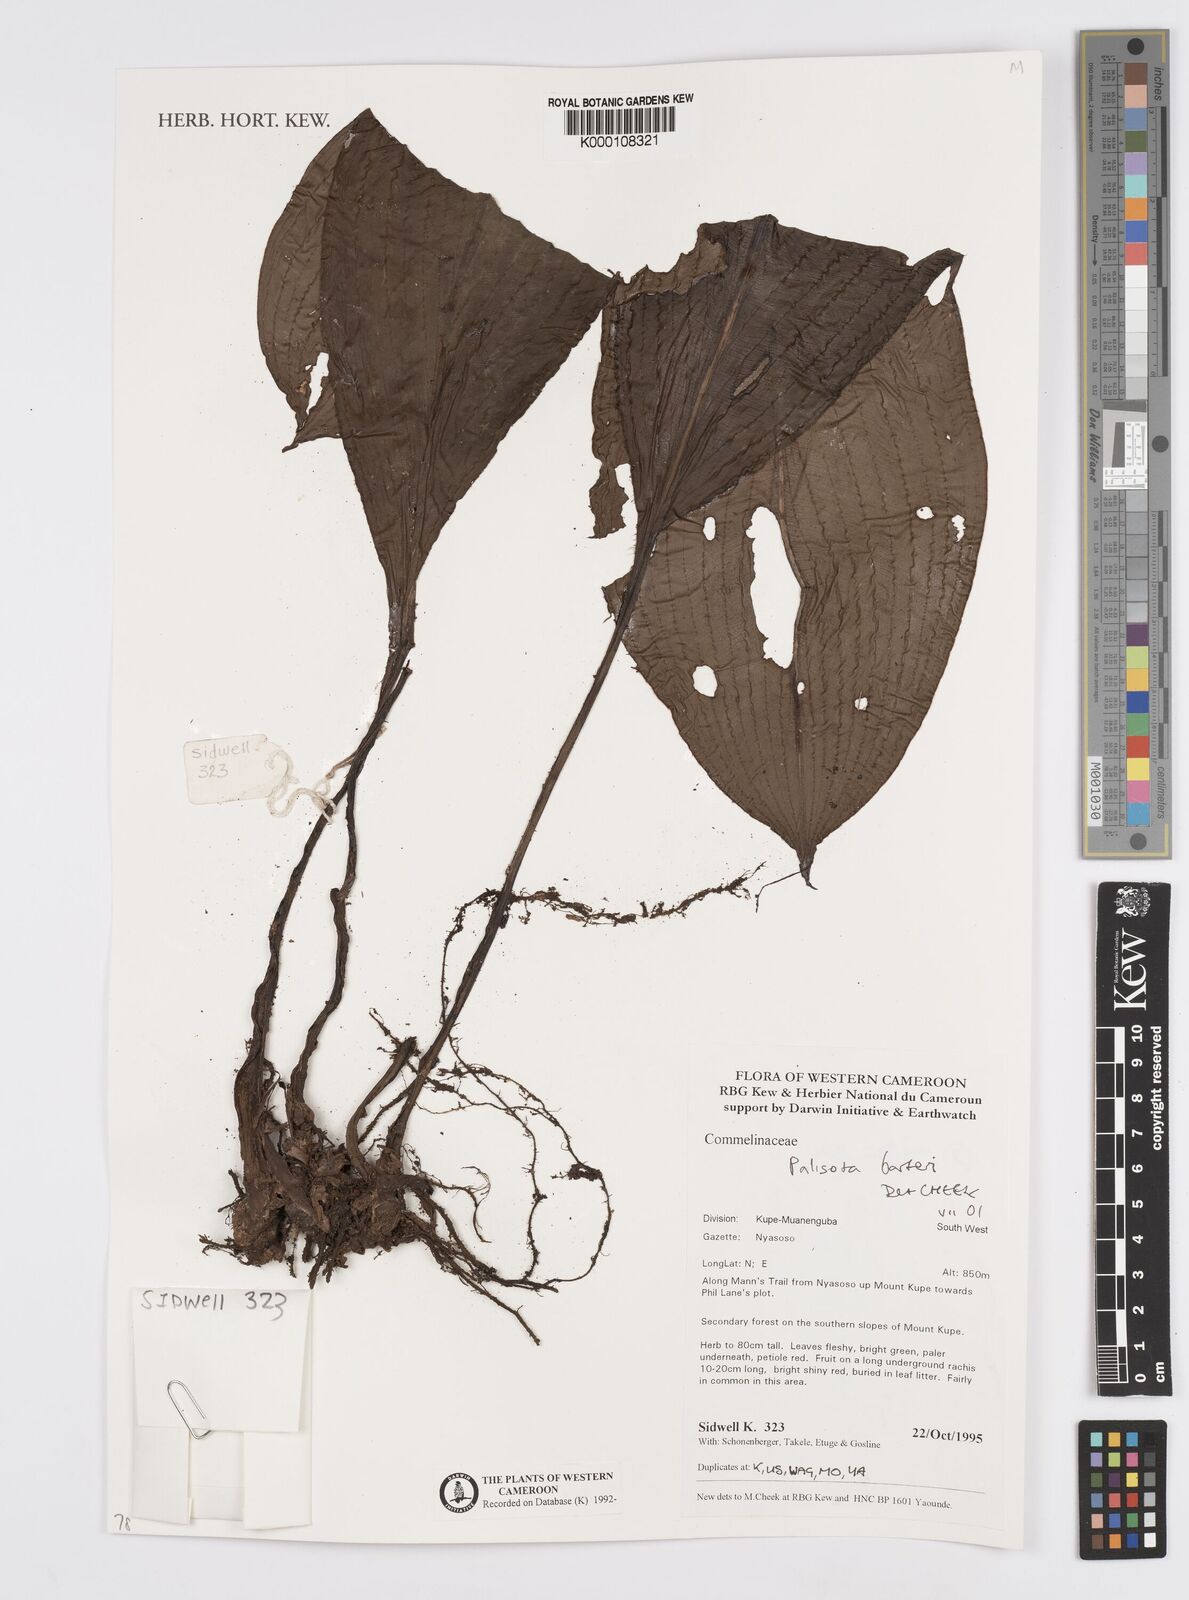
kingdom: Plantae
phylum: Tracheophyta
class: Liliopsida
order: Commelinales
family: Commelinaceae
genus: Palisota
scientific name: Palisota barteri
